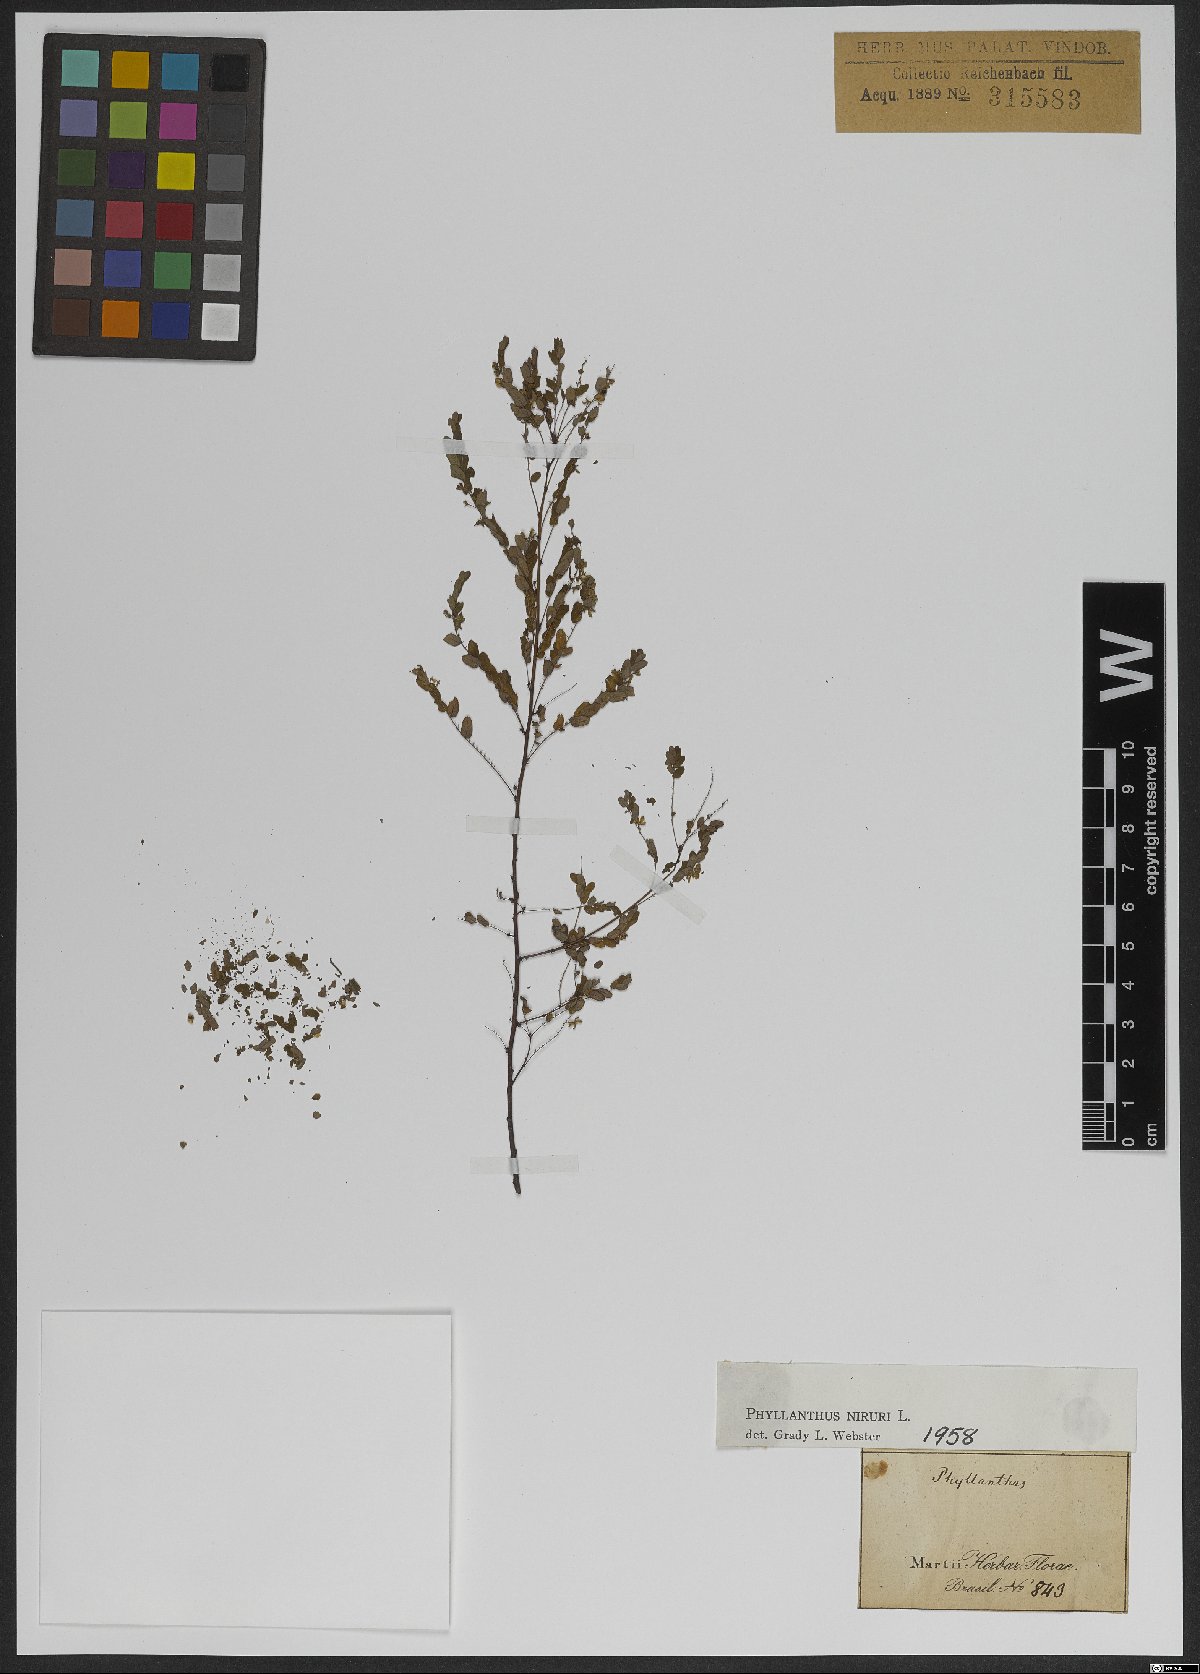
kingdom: Plantae
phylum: Tracheophyta
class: Magnoliopsida
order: Malpighiales
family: Phyllanthaceae
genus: Phyllanthus
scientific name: Phyllanthus niruri
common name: Niruri
